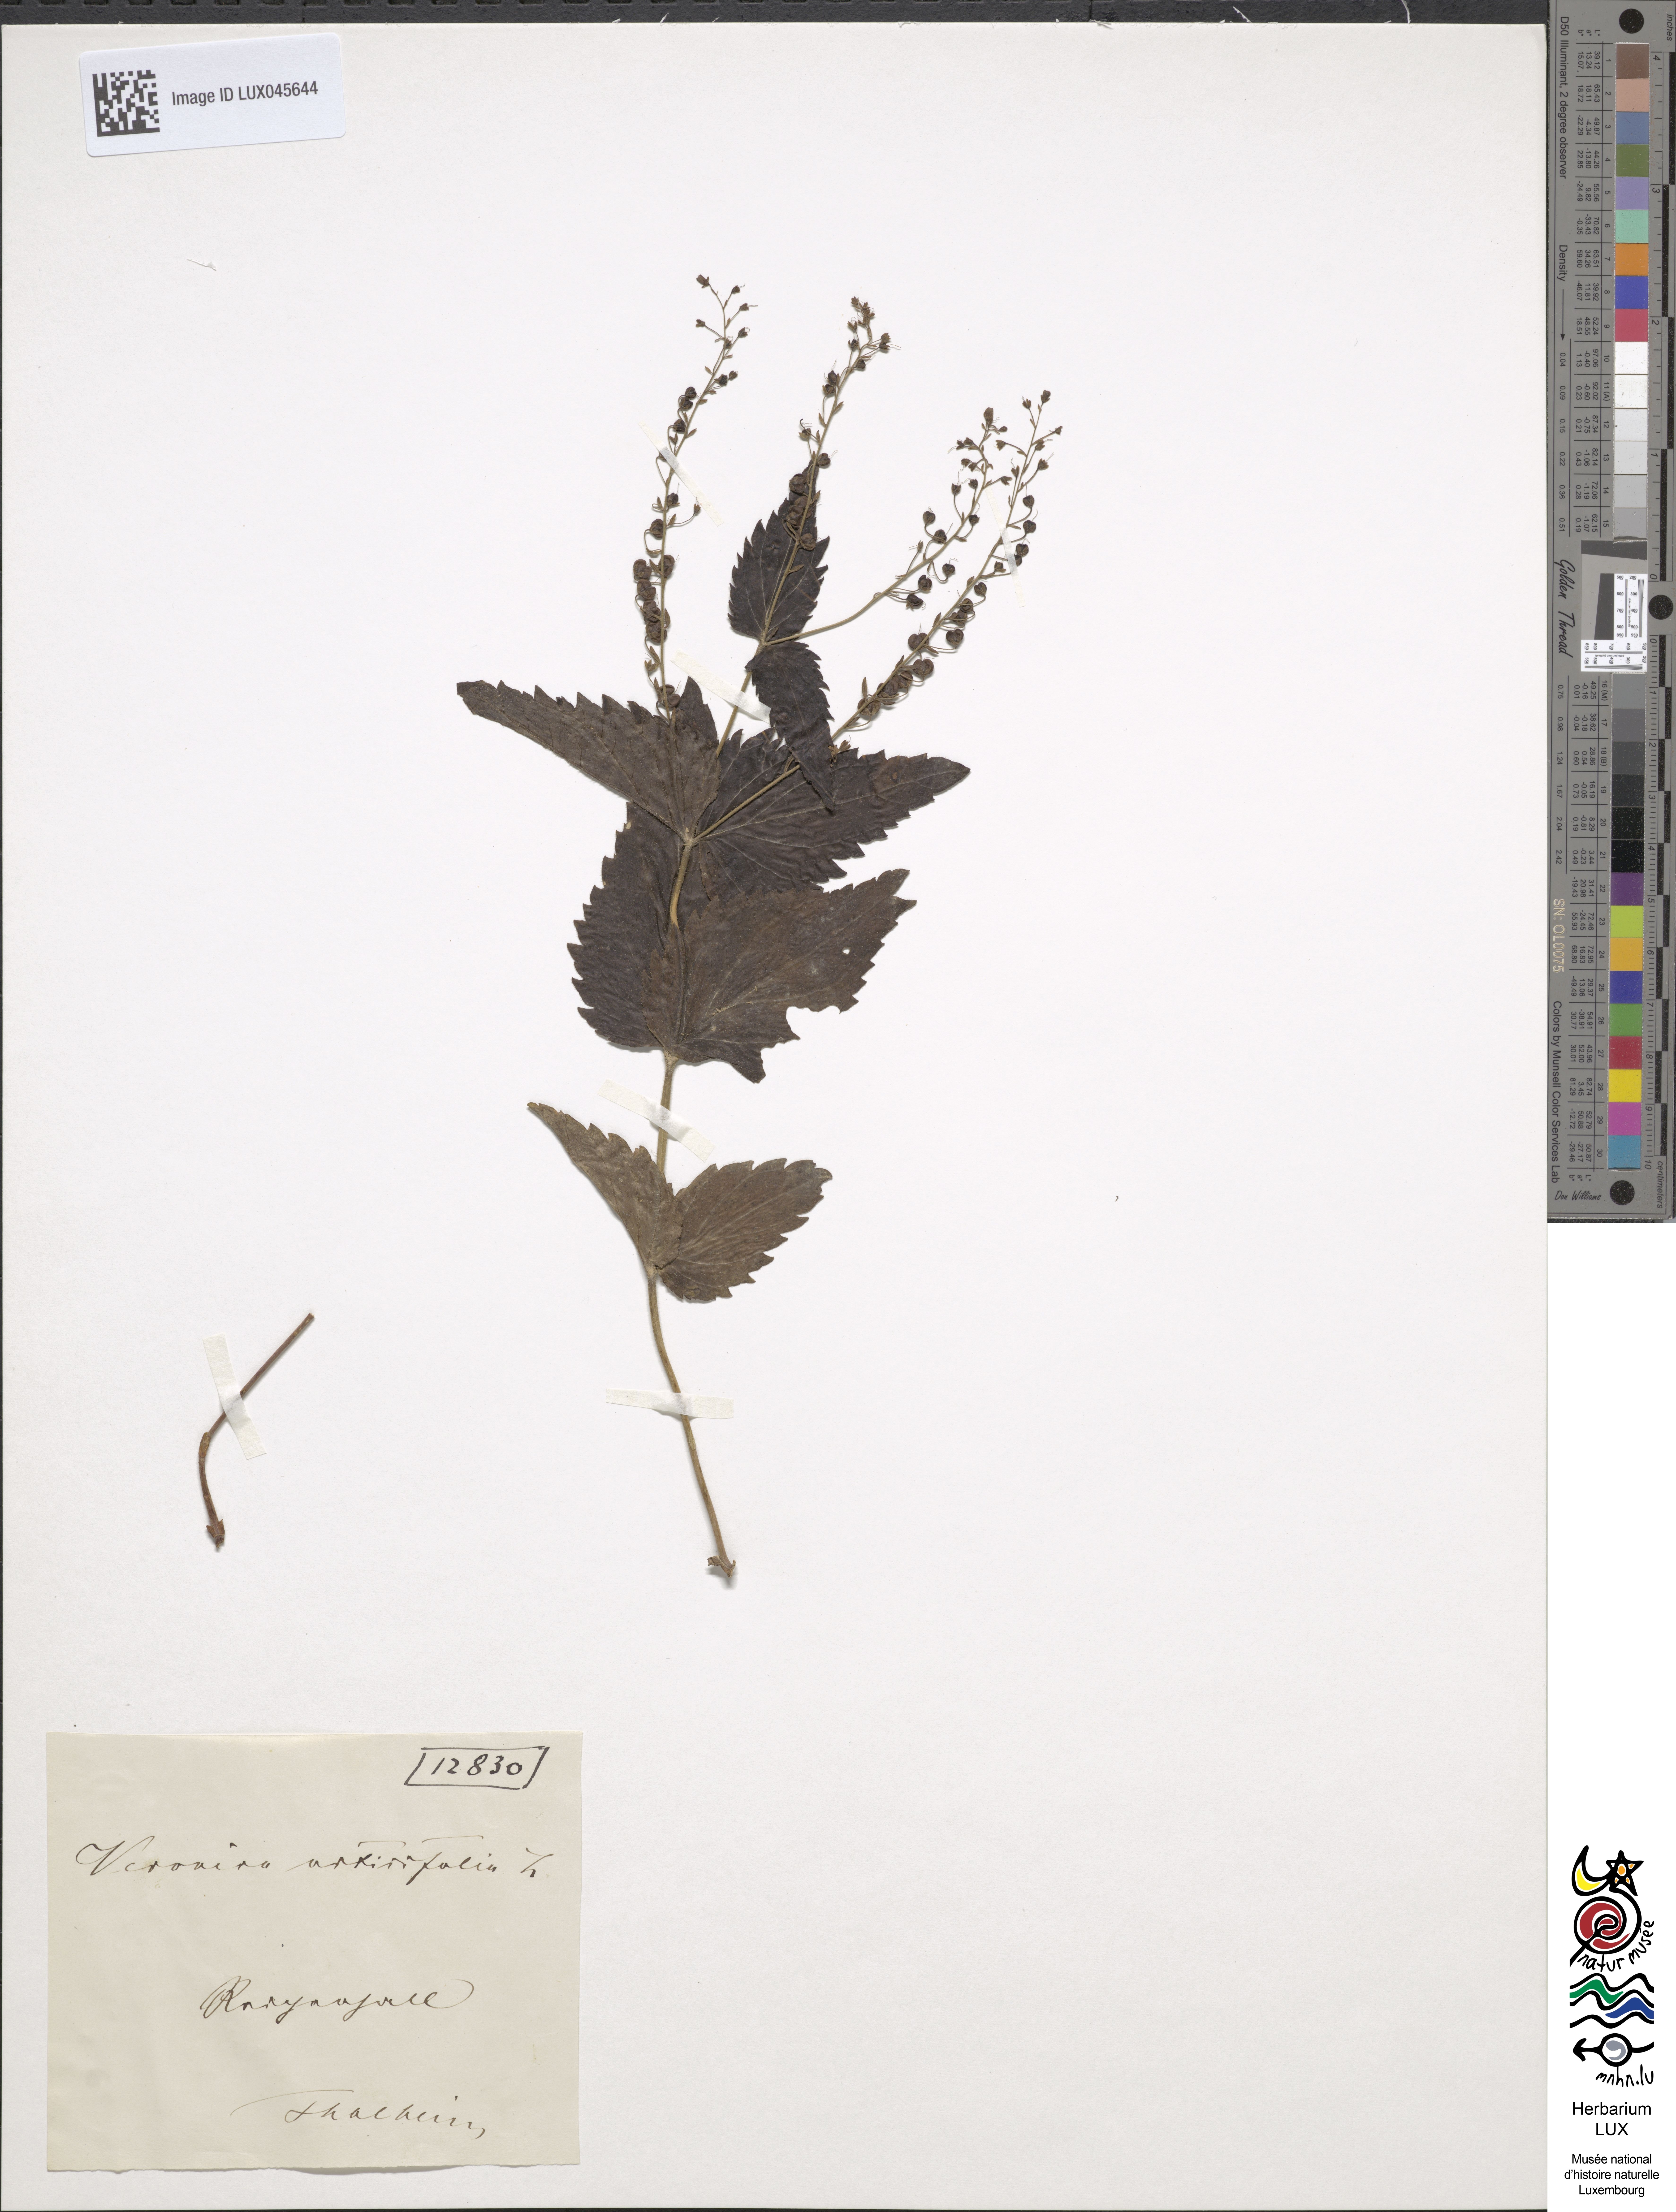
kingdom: Plantae
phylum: Tracheophyta
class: Magnoliopsida
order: Lamiales
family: Plantaginaceae
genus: Veronica
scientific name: Veronica urticifolia
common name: Nettle-leaf speedwell
